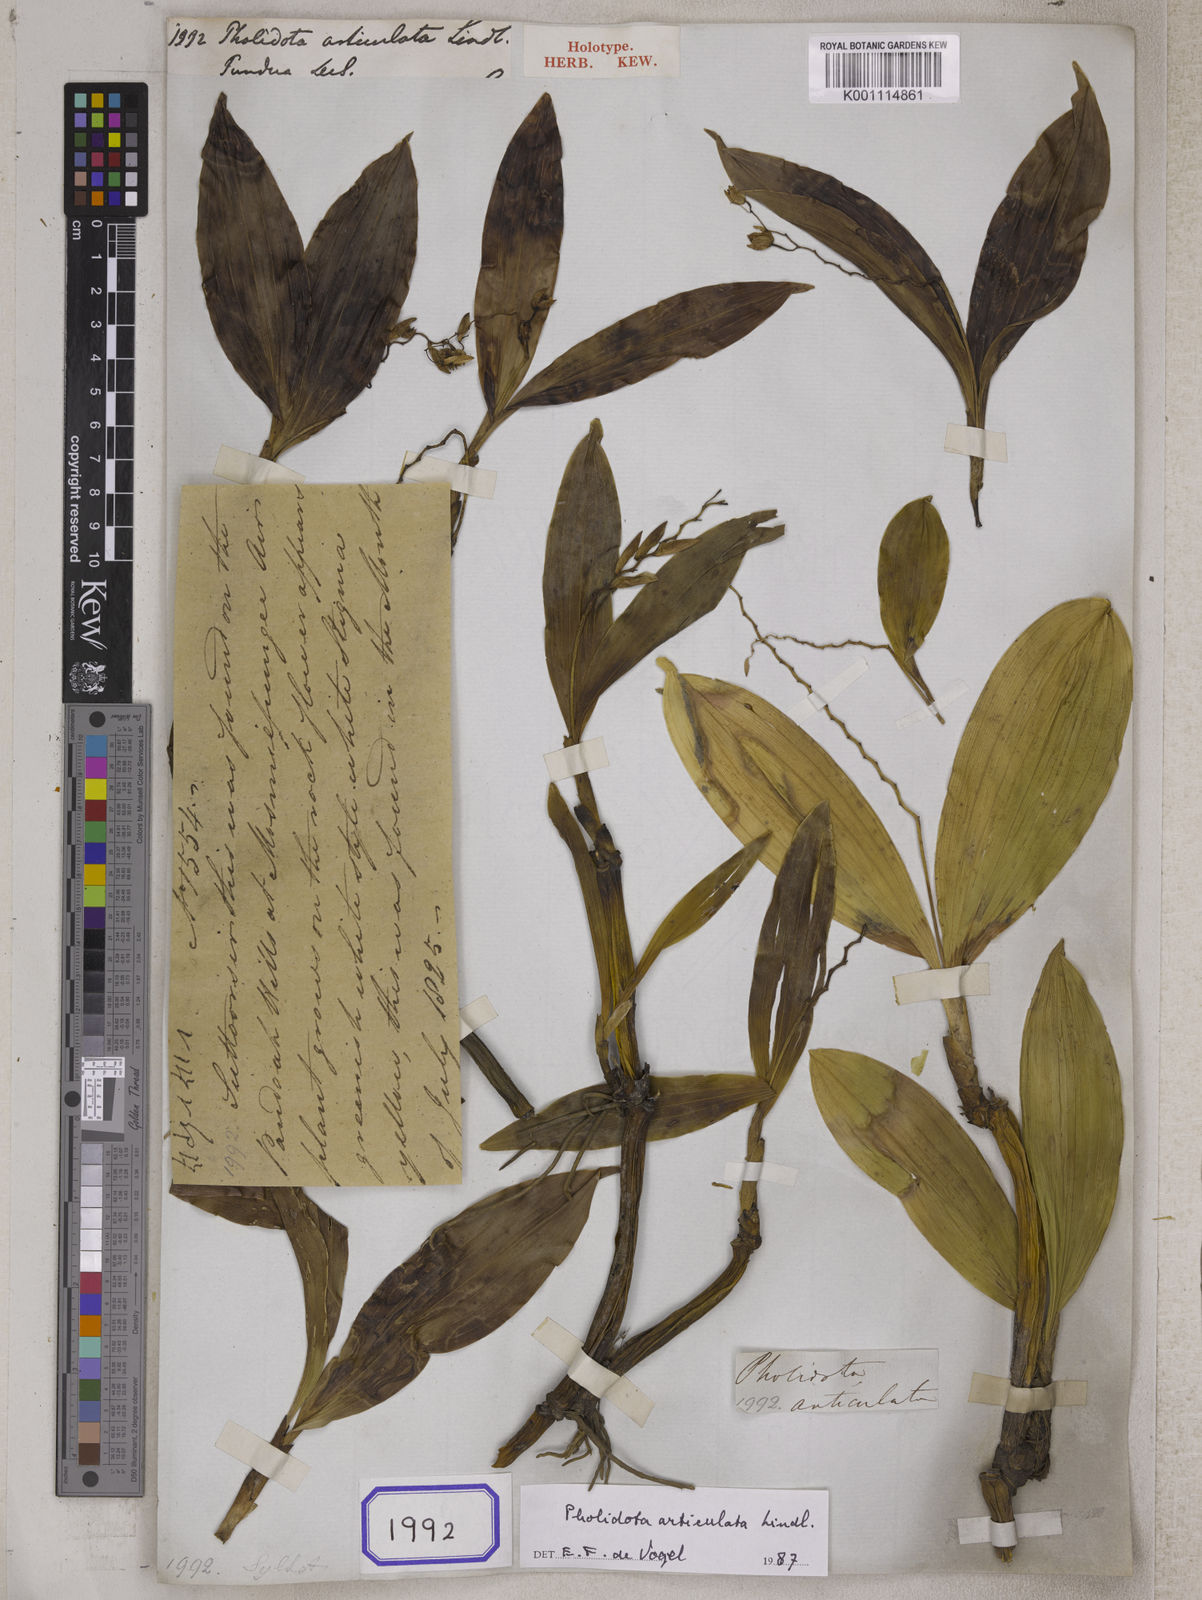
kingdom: Plantae
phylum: Tracheophyta
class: Liliopsida
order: Asparagales
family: Orchidaceae
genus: Coelogyne
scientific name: Coelogyne articulata
